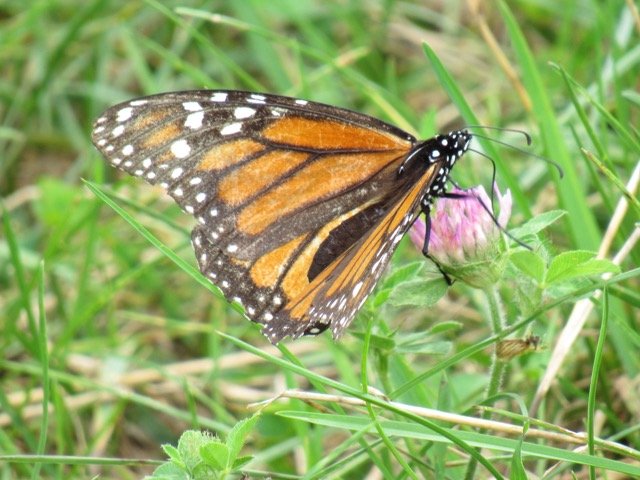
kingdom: Animalia
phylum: Arthropoda
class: Insecta
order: Lepidoptera
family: Nymphalidae
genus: Danaus
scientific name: Danaus plexippus
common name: Monarch
